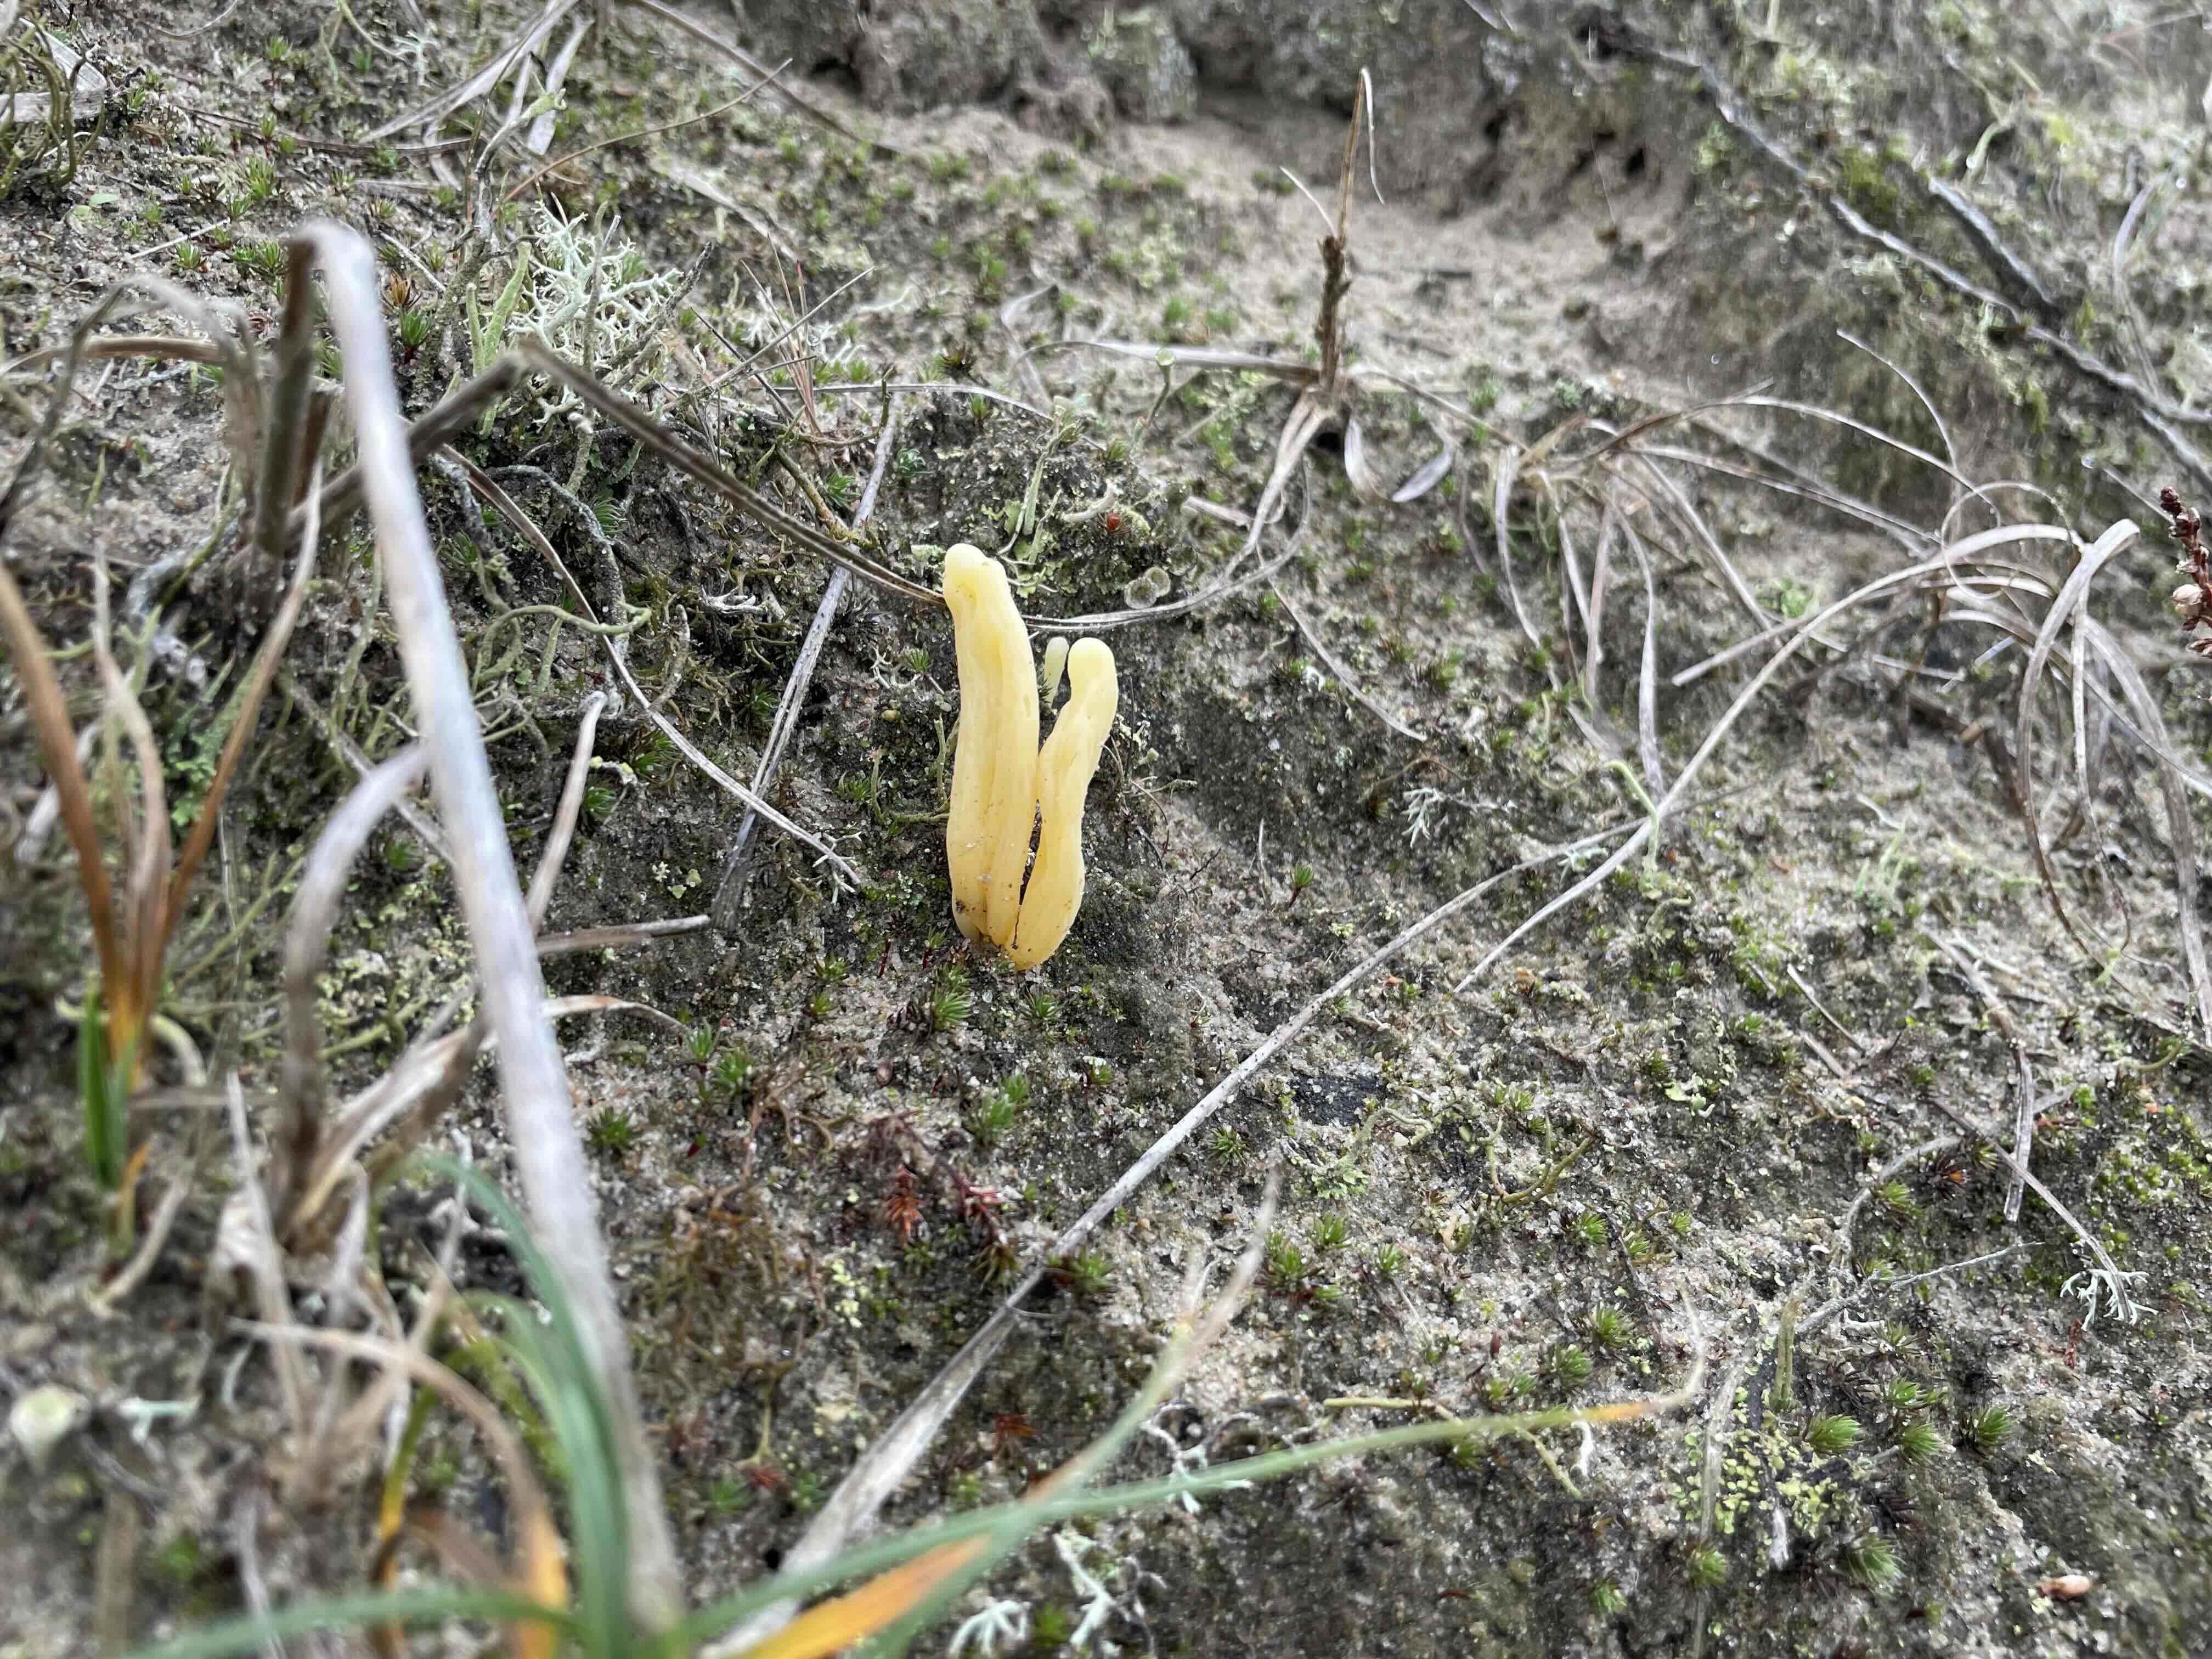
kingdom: Fungi
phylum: Basidiomycota
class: Agaricomycetes
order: Agaricales
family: Clavariaceae
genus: Clavaria
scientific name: Clavaria argillacea
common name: lerfarvet køllesvamp
